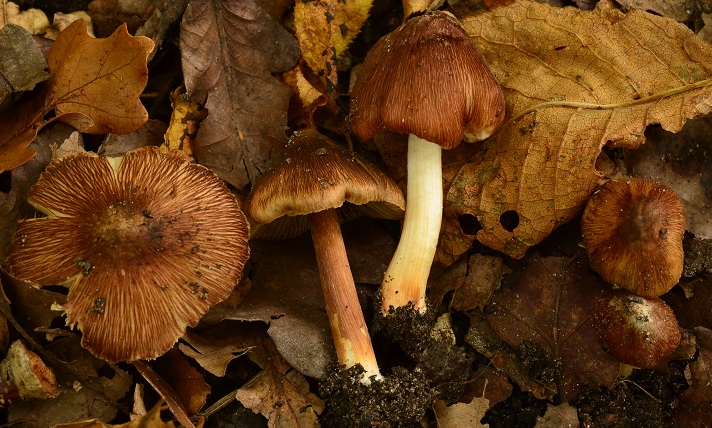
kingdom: Fungi
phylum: Basidiomycota
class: Agaricomycetes
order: Agaricales
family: Inocybaceae
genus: Inosperma
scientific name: Inosperma fulvum
